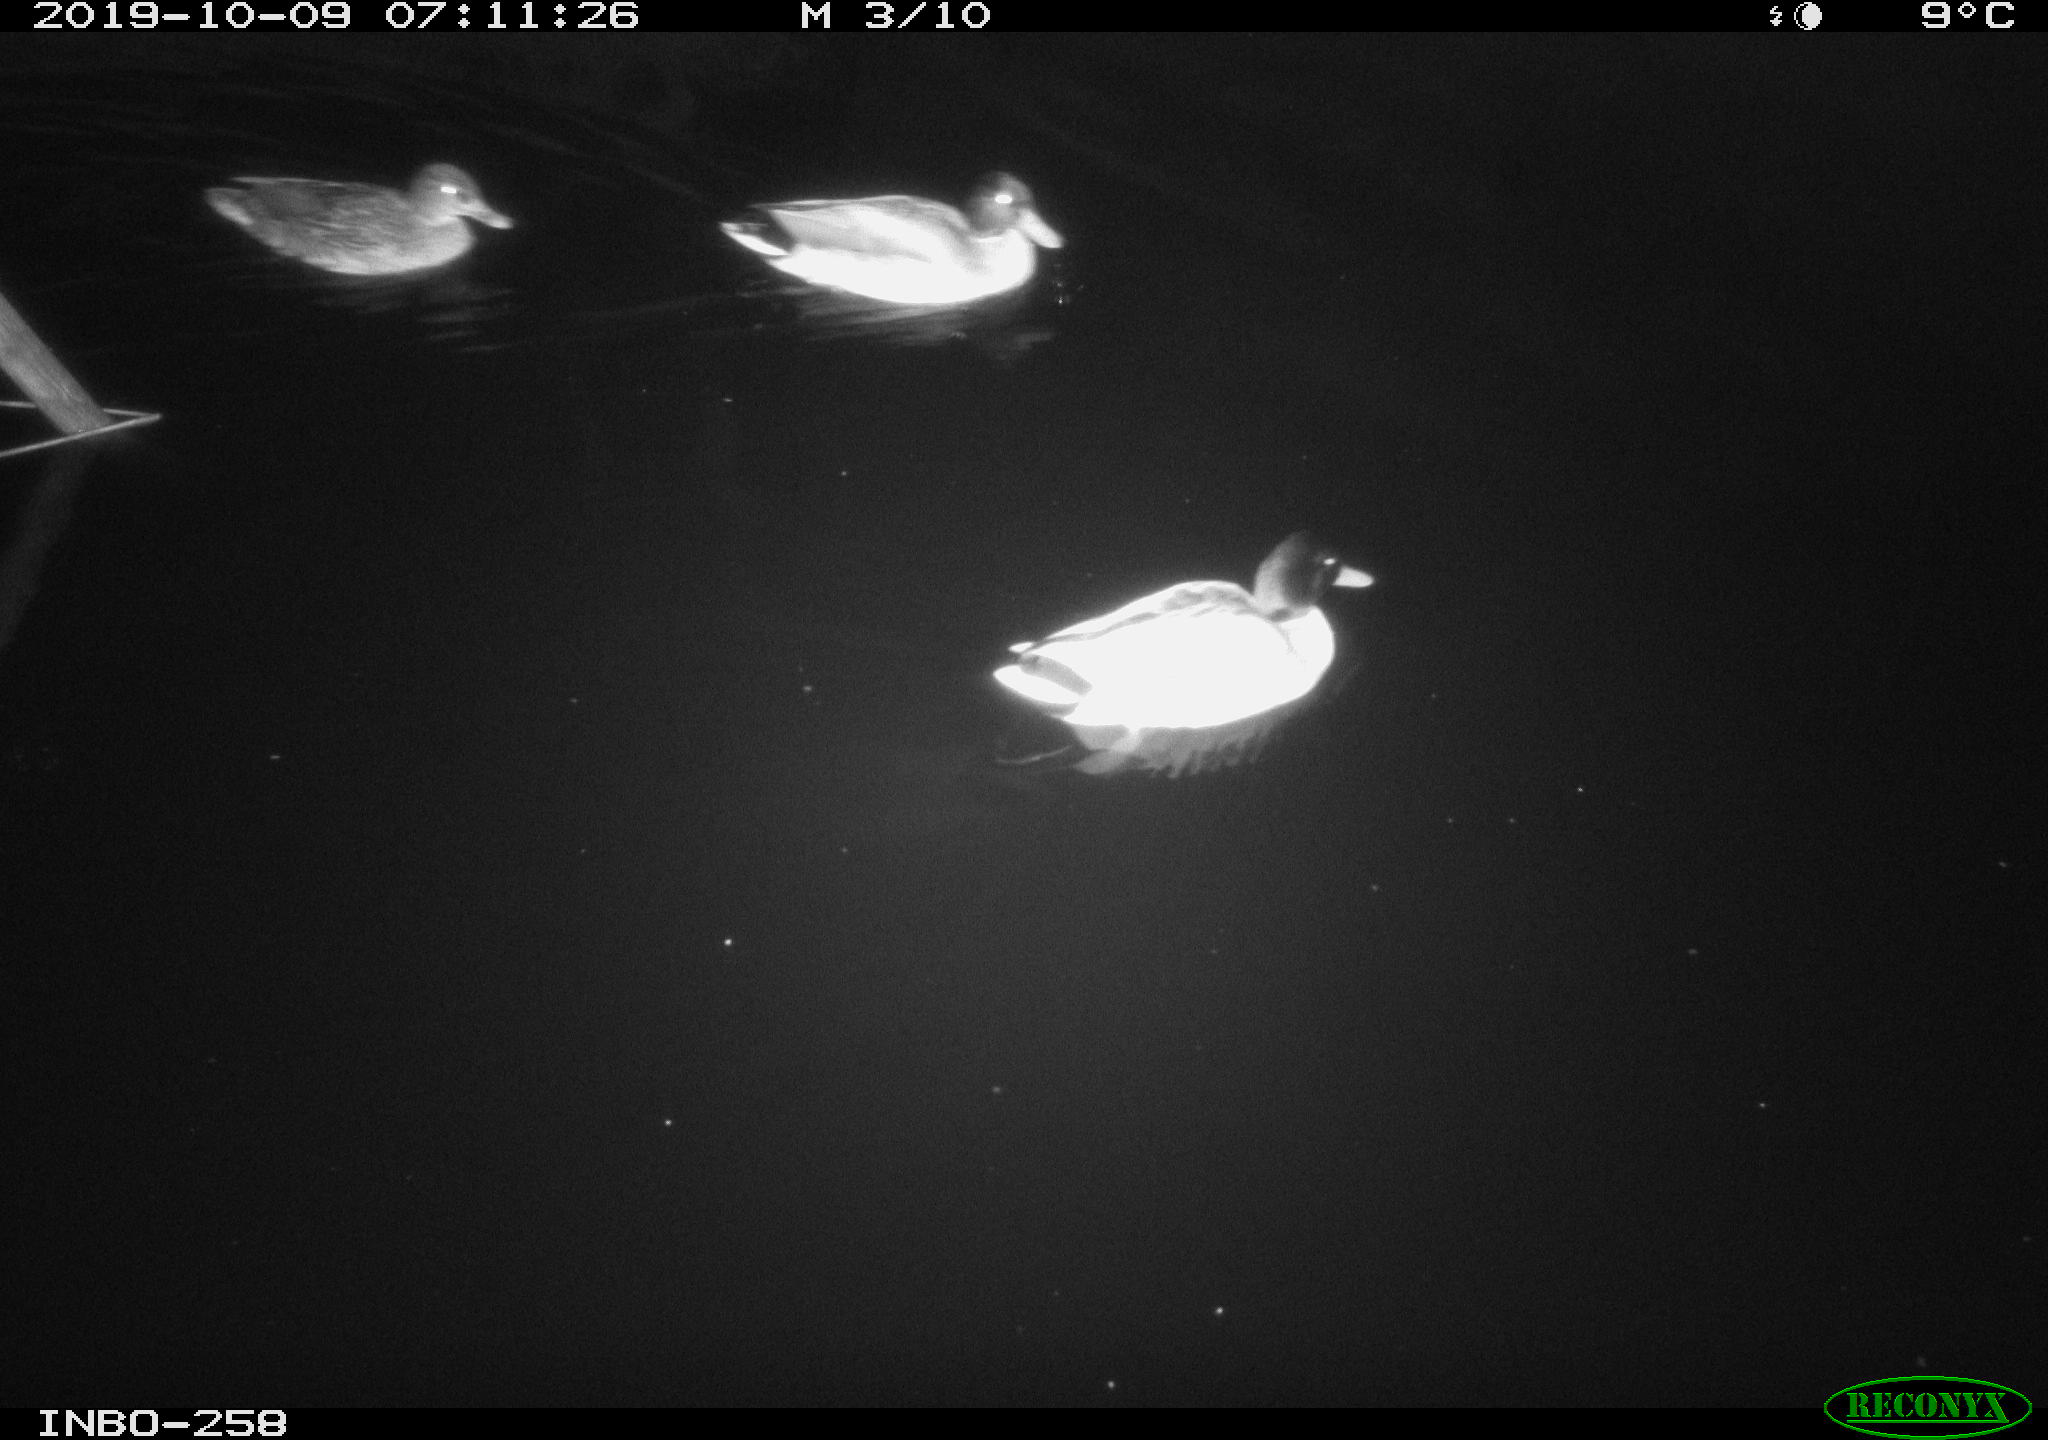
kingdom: Animalia
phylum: Chordata
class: Aves
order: Anseriformes
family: Anatidae
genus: Anas
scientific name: Anas platyrhynchos
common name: Mallard
